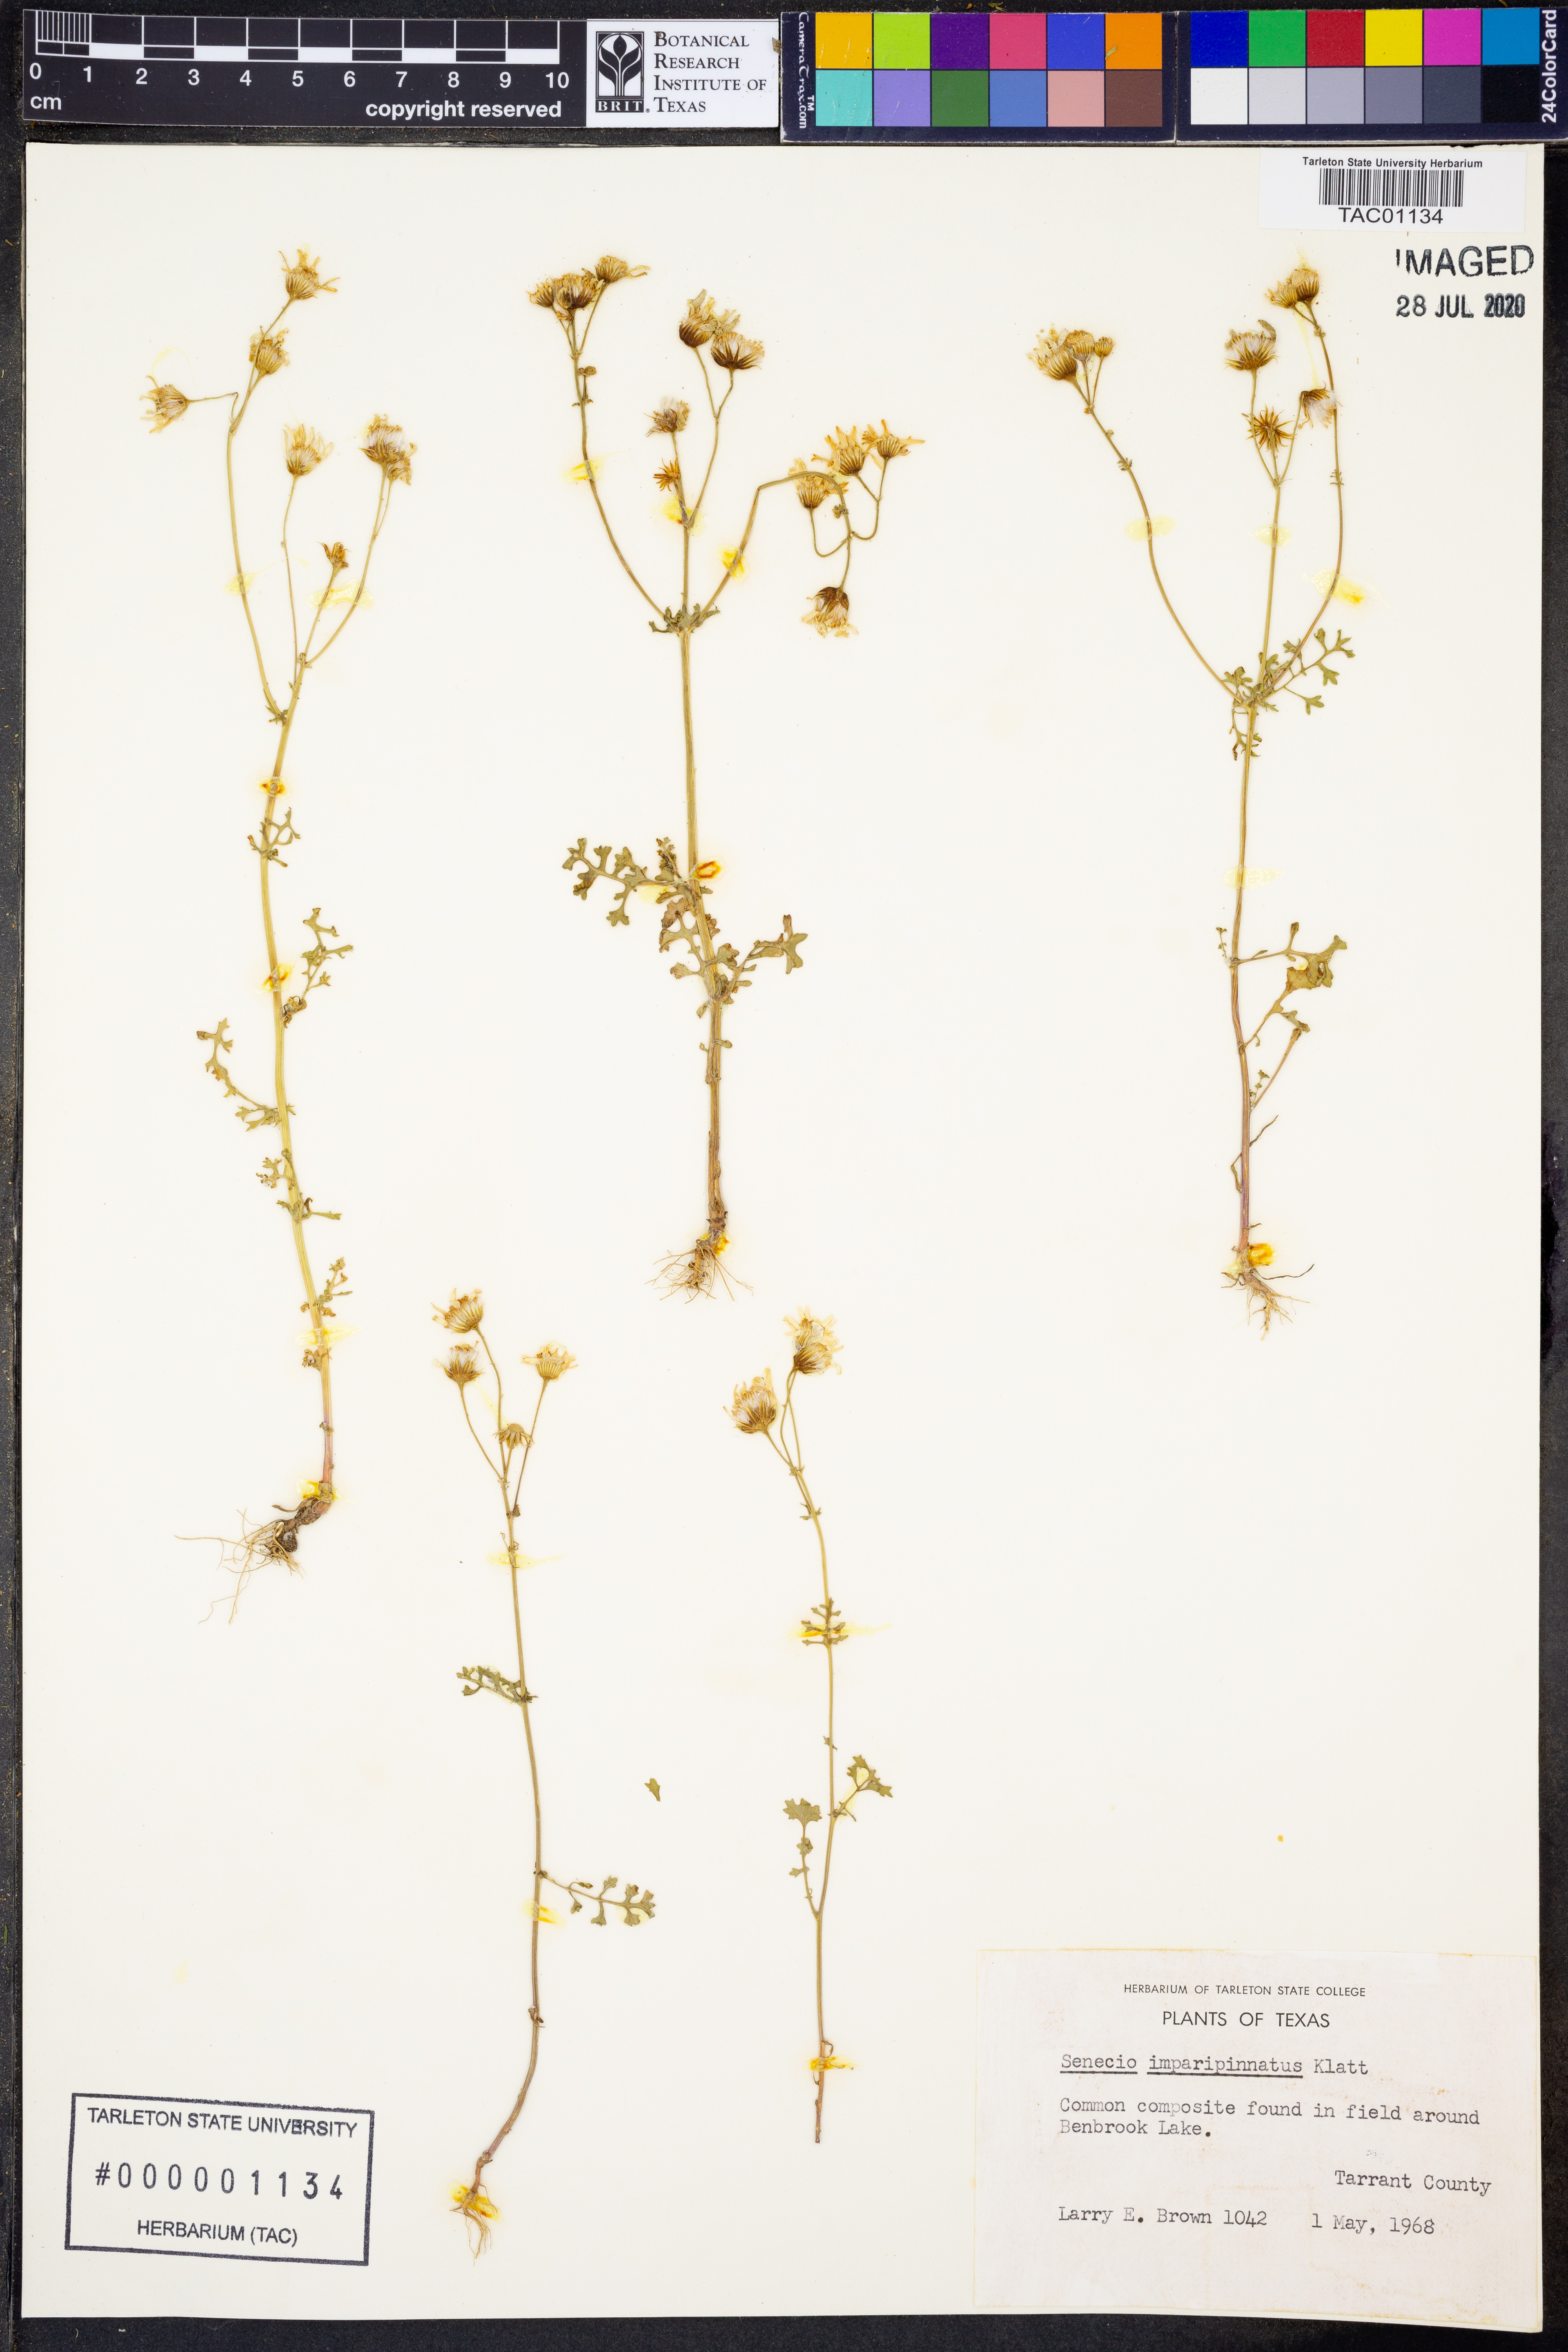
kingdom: Plantae
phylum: Tracheophyta
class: Magnoliopsida
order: Asterales
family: Asteraceae
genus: Packera
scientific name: Packera tampicana
